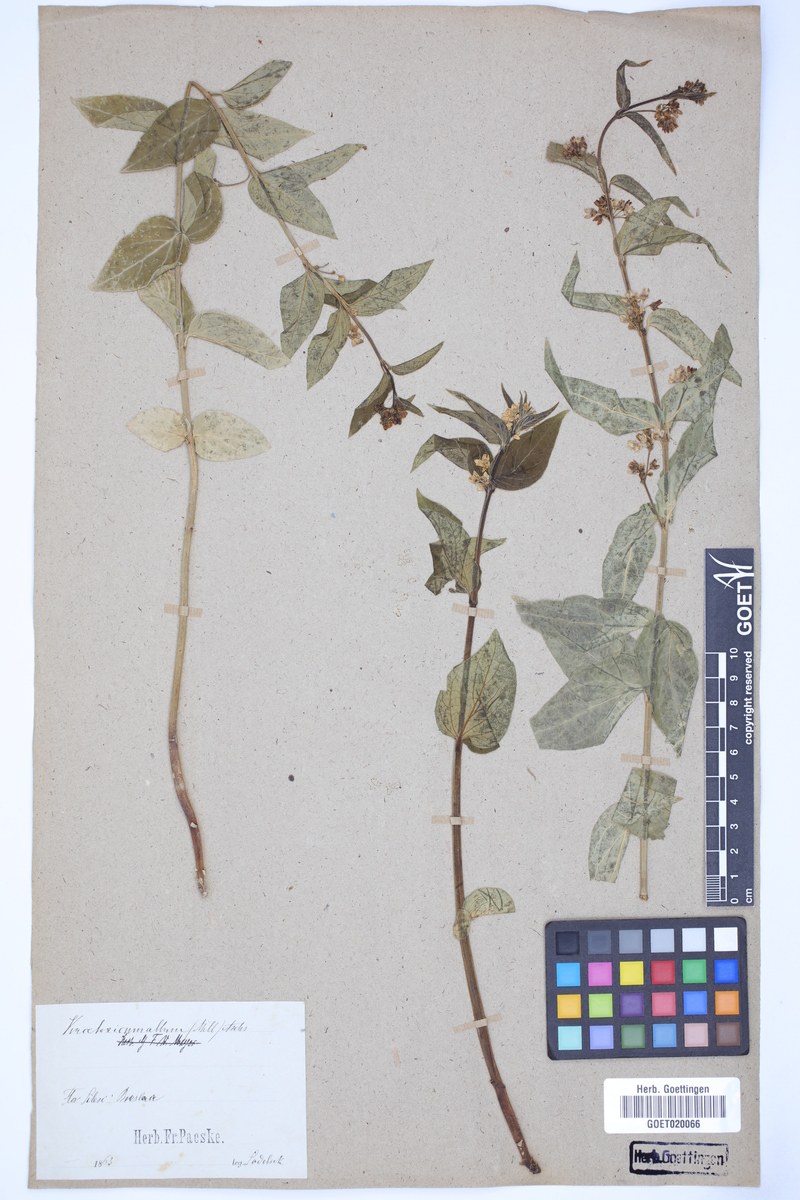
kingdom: Plantae
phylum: Tracheophyta
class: Magnoliopsida
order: Gentianales
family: Apocynaceae
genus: Vincetoxicum
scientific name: Vincetoxicum hirundinaria
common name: White swallowwort
